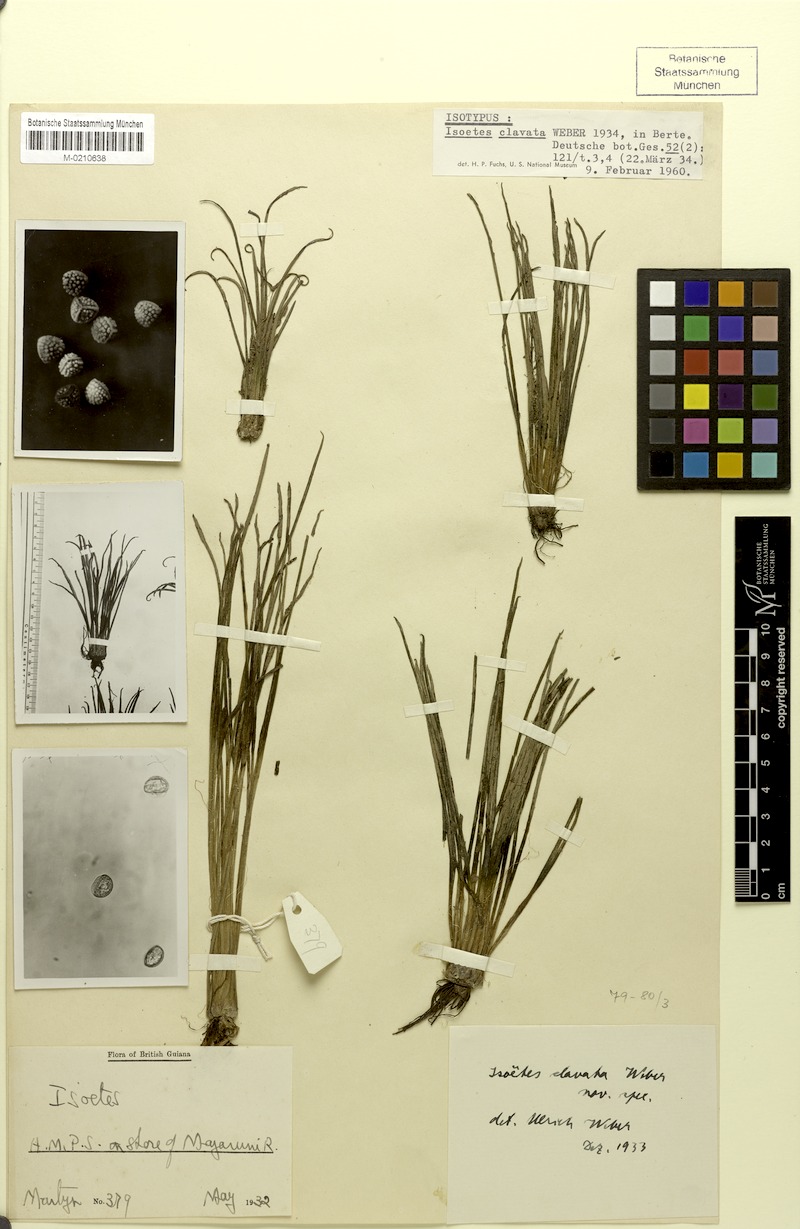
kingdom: Plantae
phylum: Tracheophyta
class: Lycopodiopsida
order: Isoetales
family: Isoetaceae
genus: Isoetes
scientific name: Isoetes ovata
